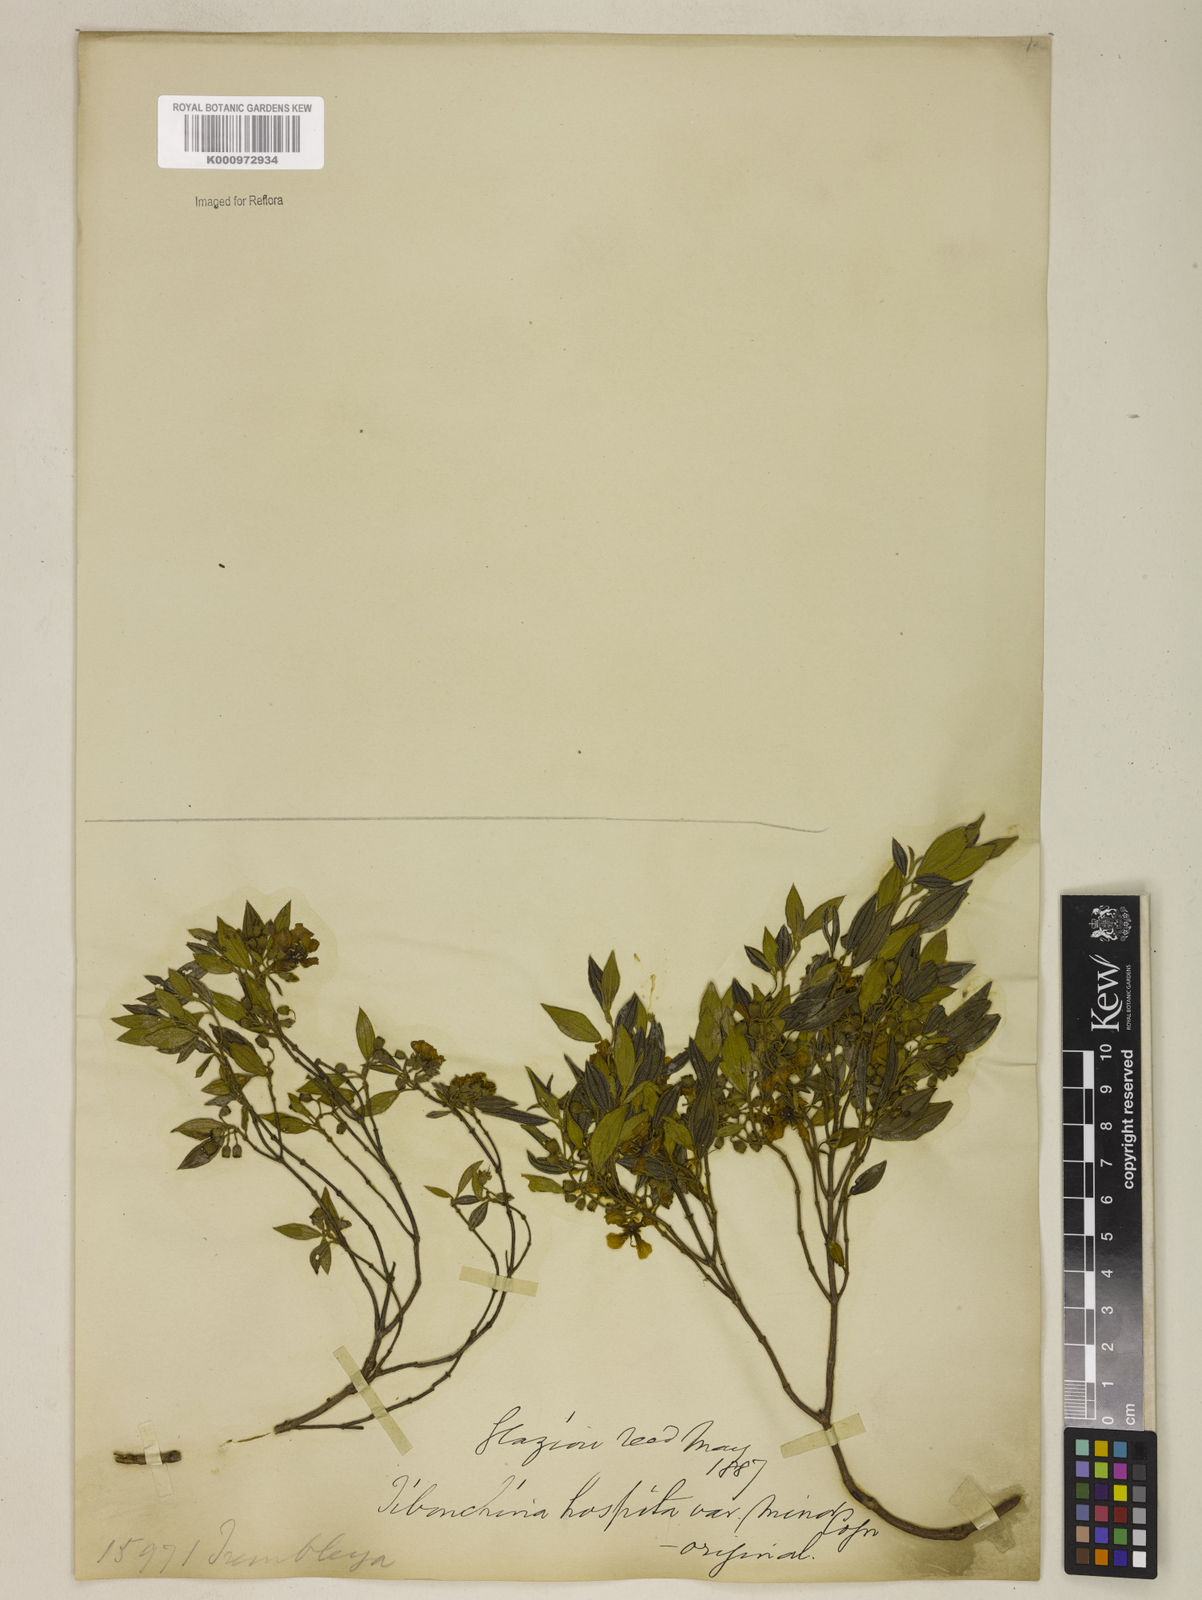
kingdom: Plantae
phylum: Tracheophyta
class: Magnoliopsida
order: Myrtales
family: Melastomataceae
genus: Pleroma
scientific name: Pleroma hospitum
